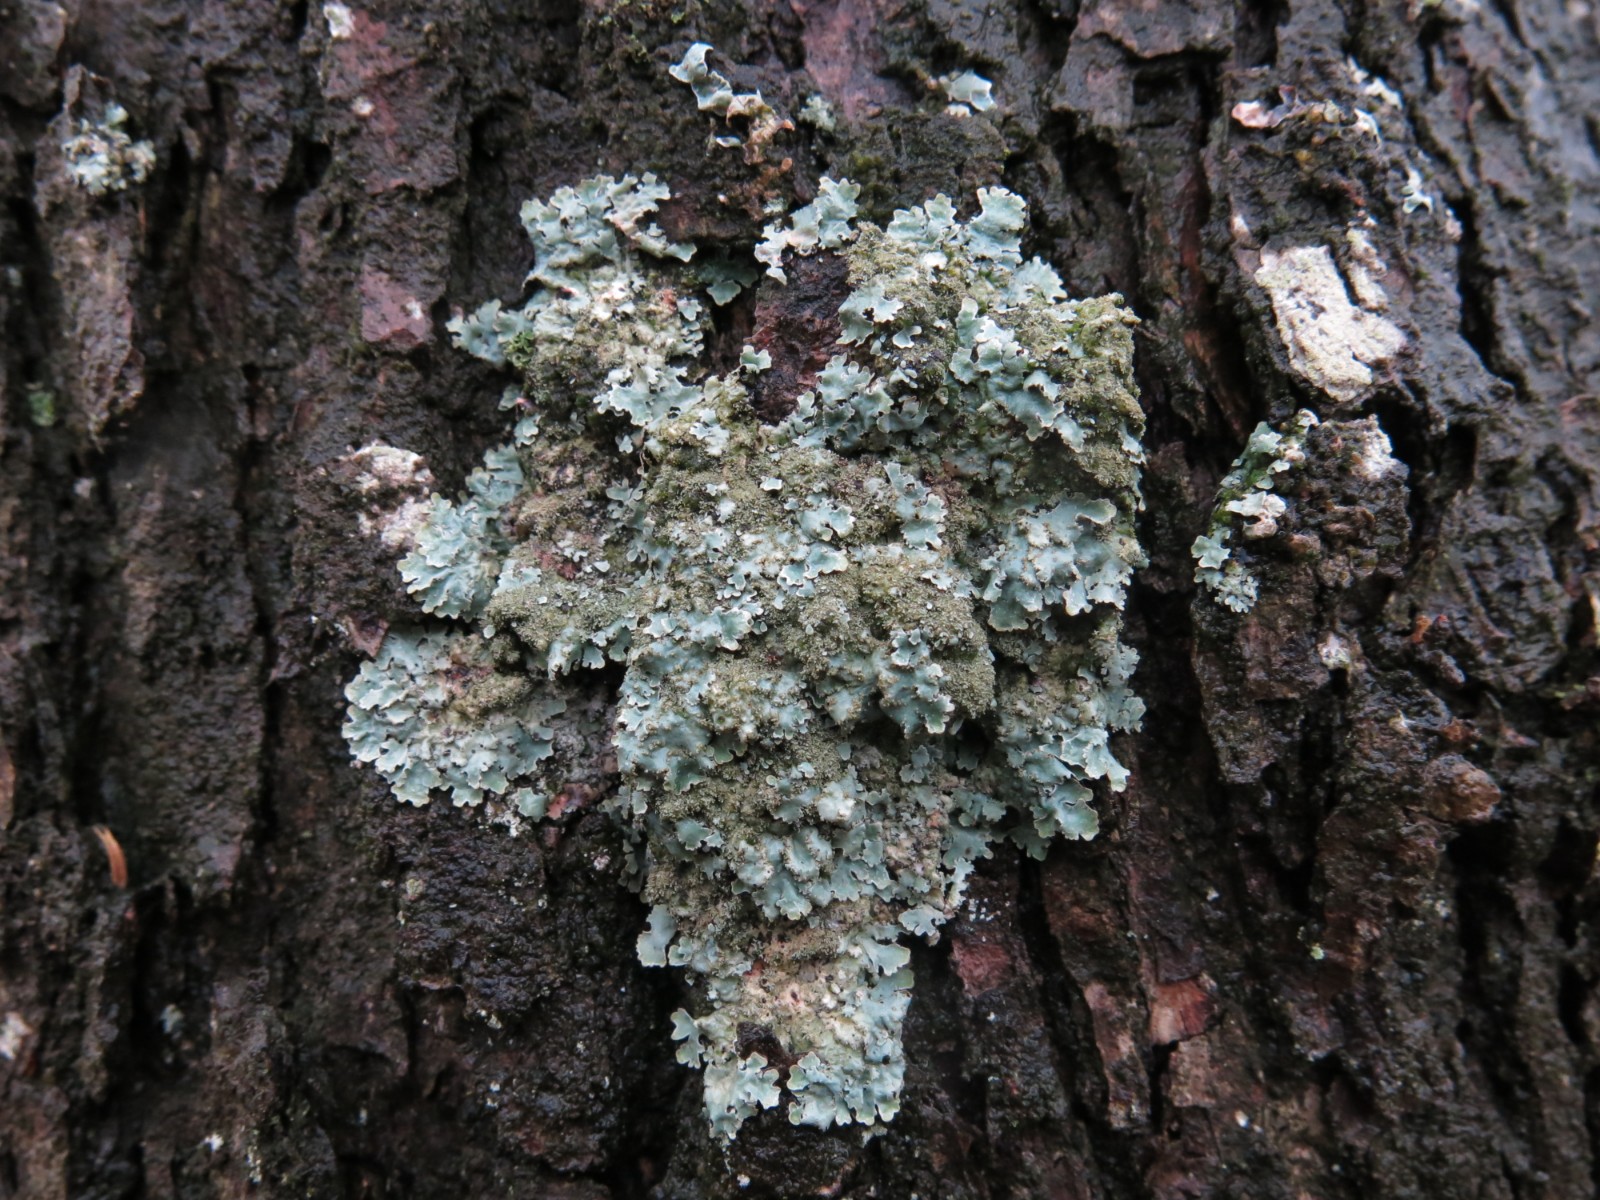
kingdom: Fungi
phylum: Ascomycota
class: Lecanoromycetes
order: Lecanorales
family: Parmeliaceae
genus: Parmelia
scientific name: Parmelia ernstiae
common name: rimstift-skållav
